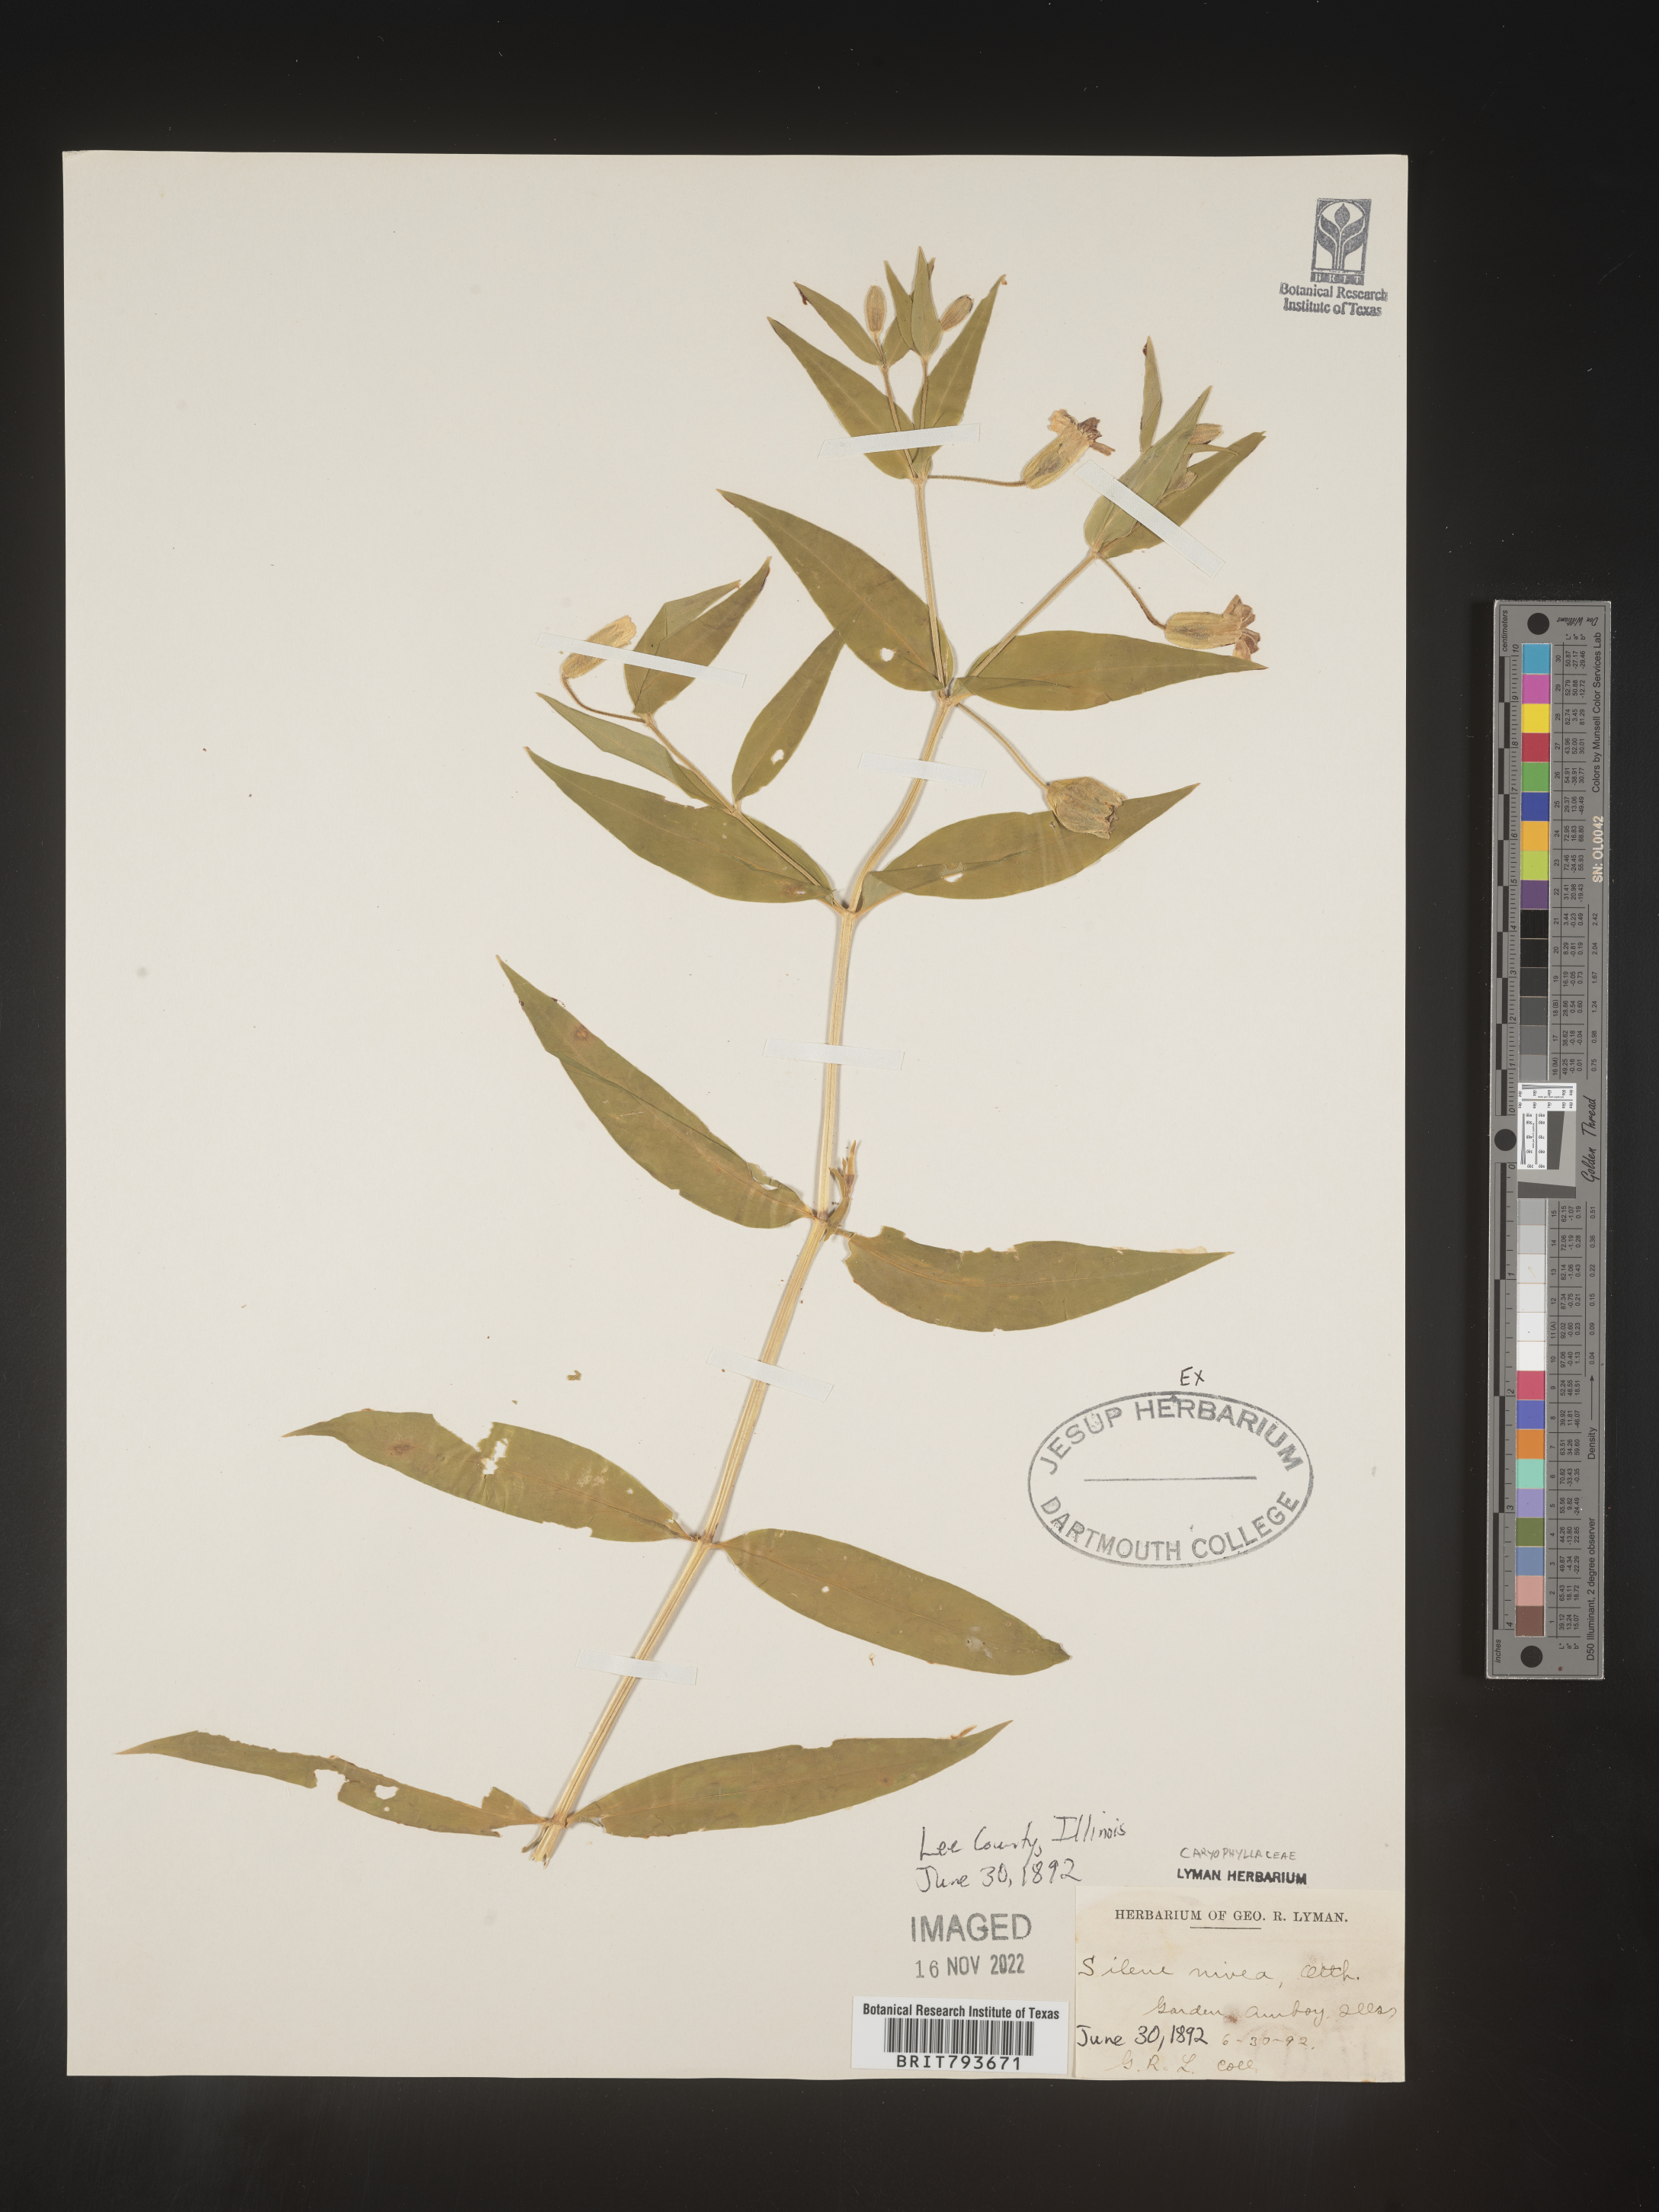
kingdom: Plantae
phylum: Tracheophyta
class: Magnoliopsida
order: Caryophyllales
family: Caryophyllaceae
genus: Silene
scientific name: Silene nivea
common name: Snowy campion
